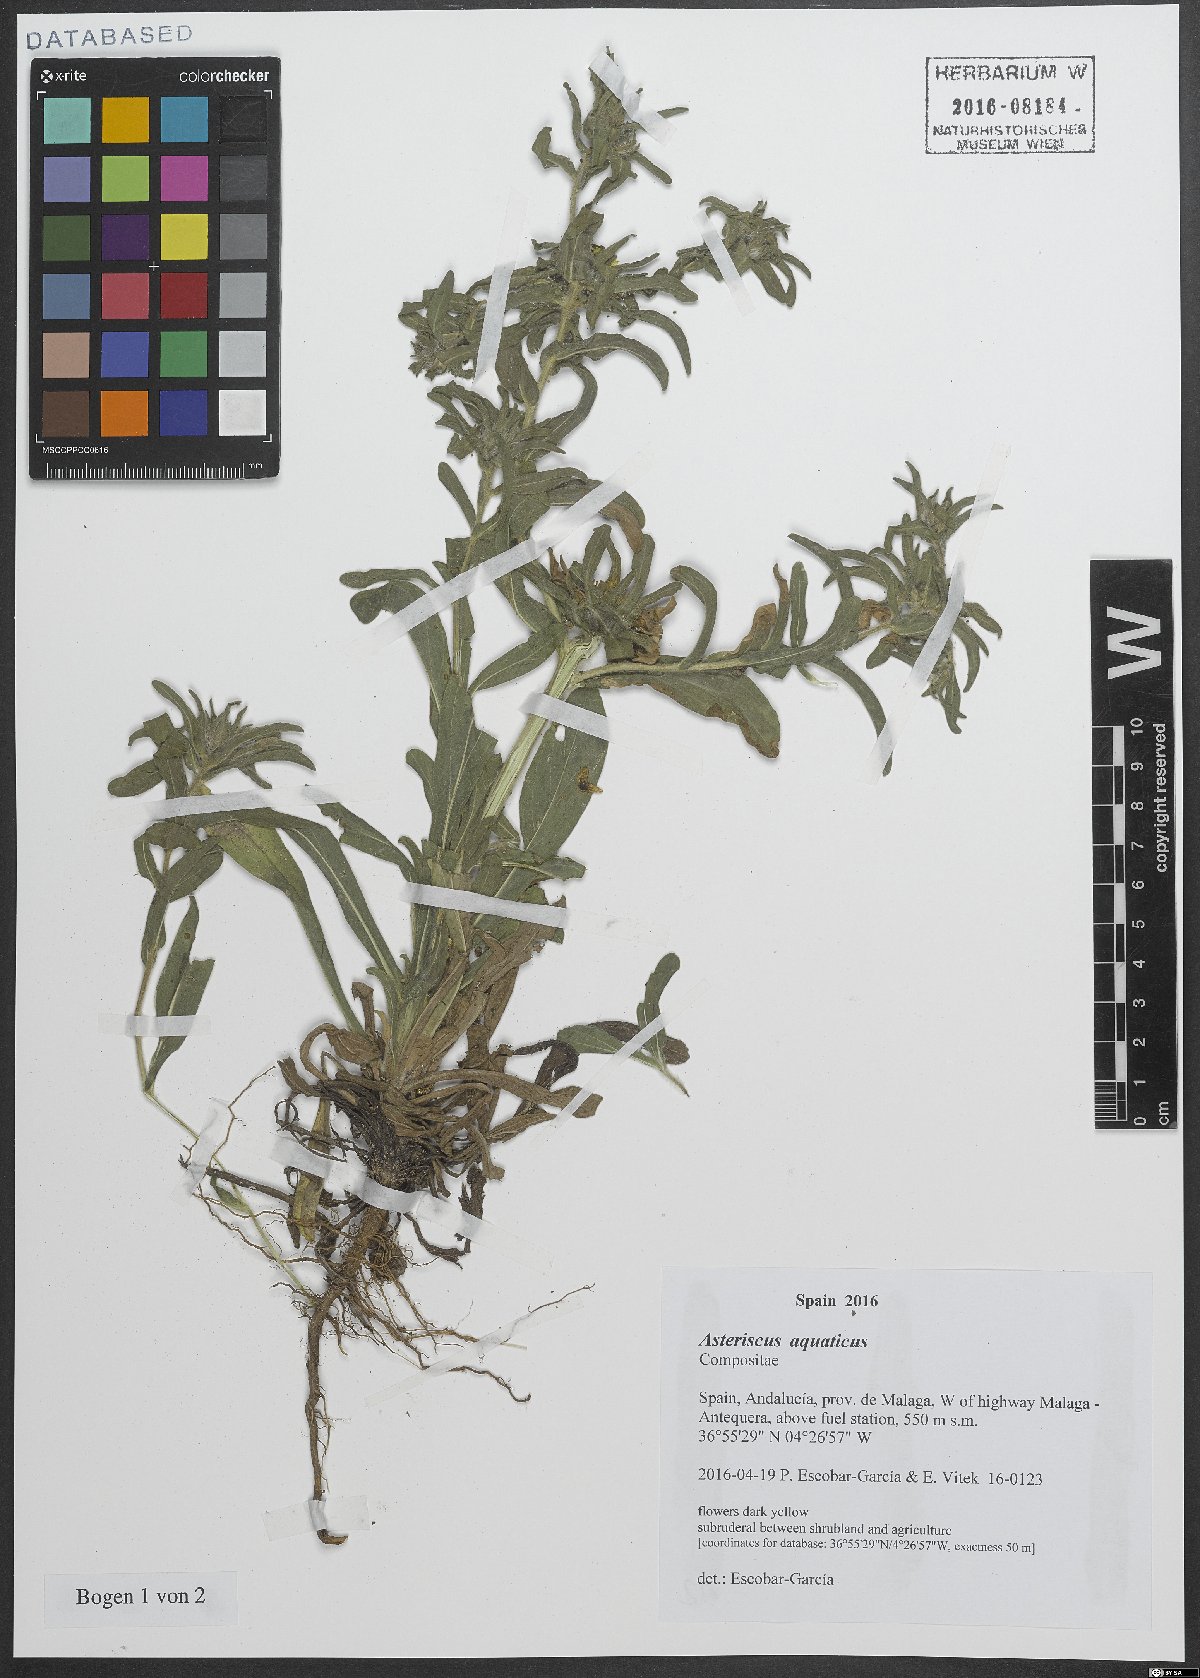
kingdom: Plantae
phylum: Tracheophyta
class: Magnoliopsida
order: Asterales
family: Asteraceae
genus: Asteriscus
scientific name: Asteriscus aquaticus
